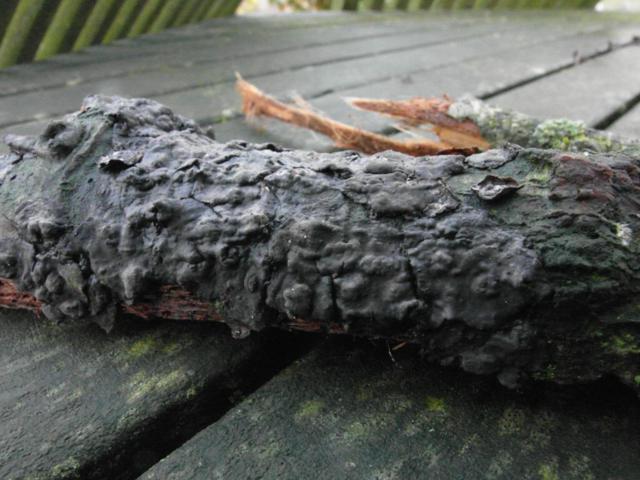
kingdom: Fungi
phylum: Basidiomycota
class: Agaricomycetes
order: Russulales
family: Peniophoraceae
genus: Peniophora
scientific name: Peniophora rufomarginata
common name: linde-voksskind
